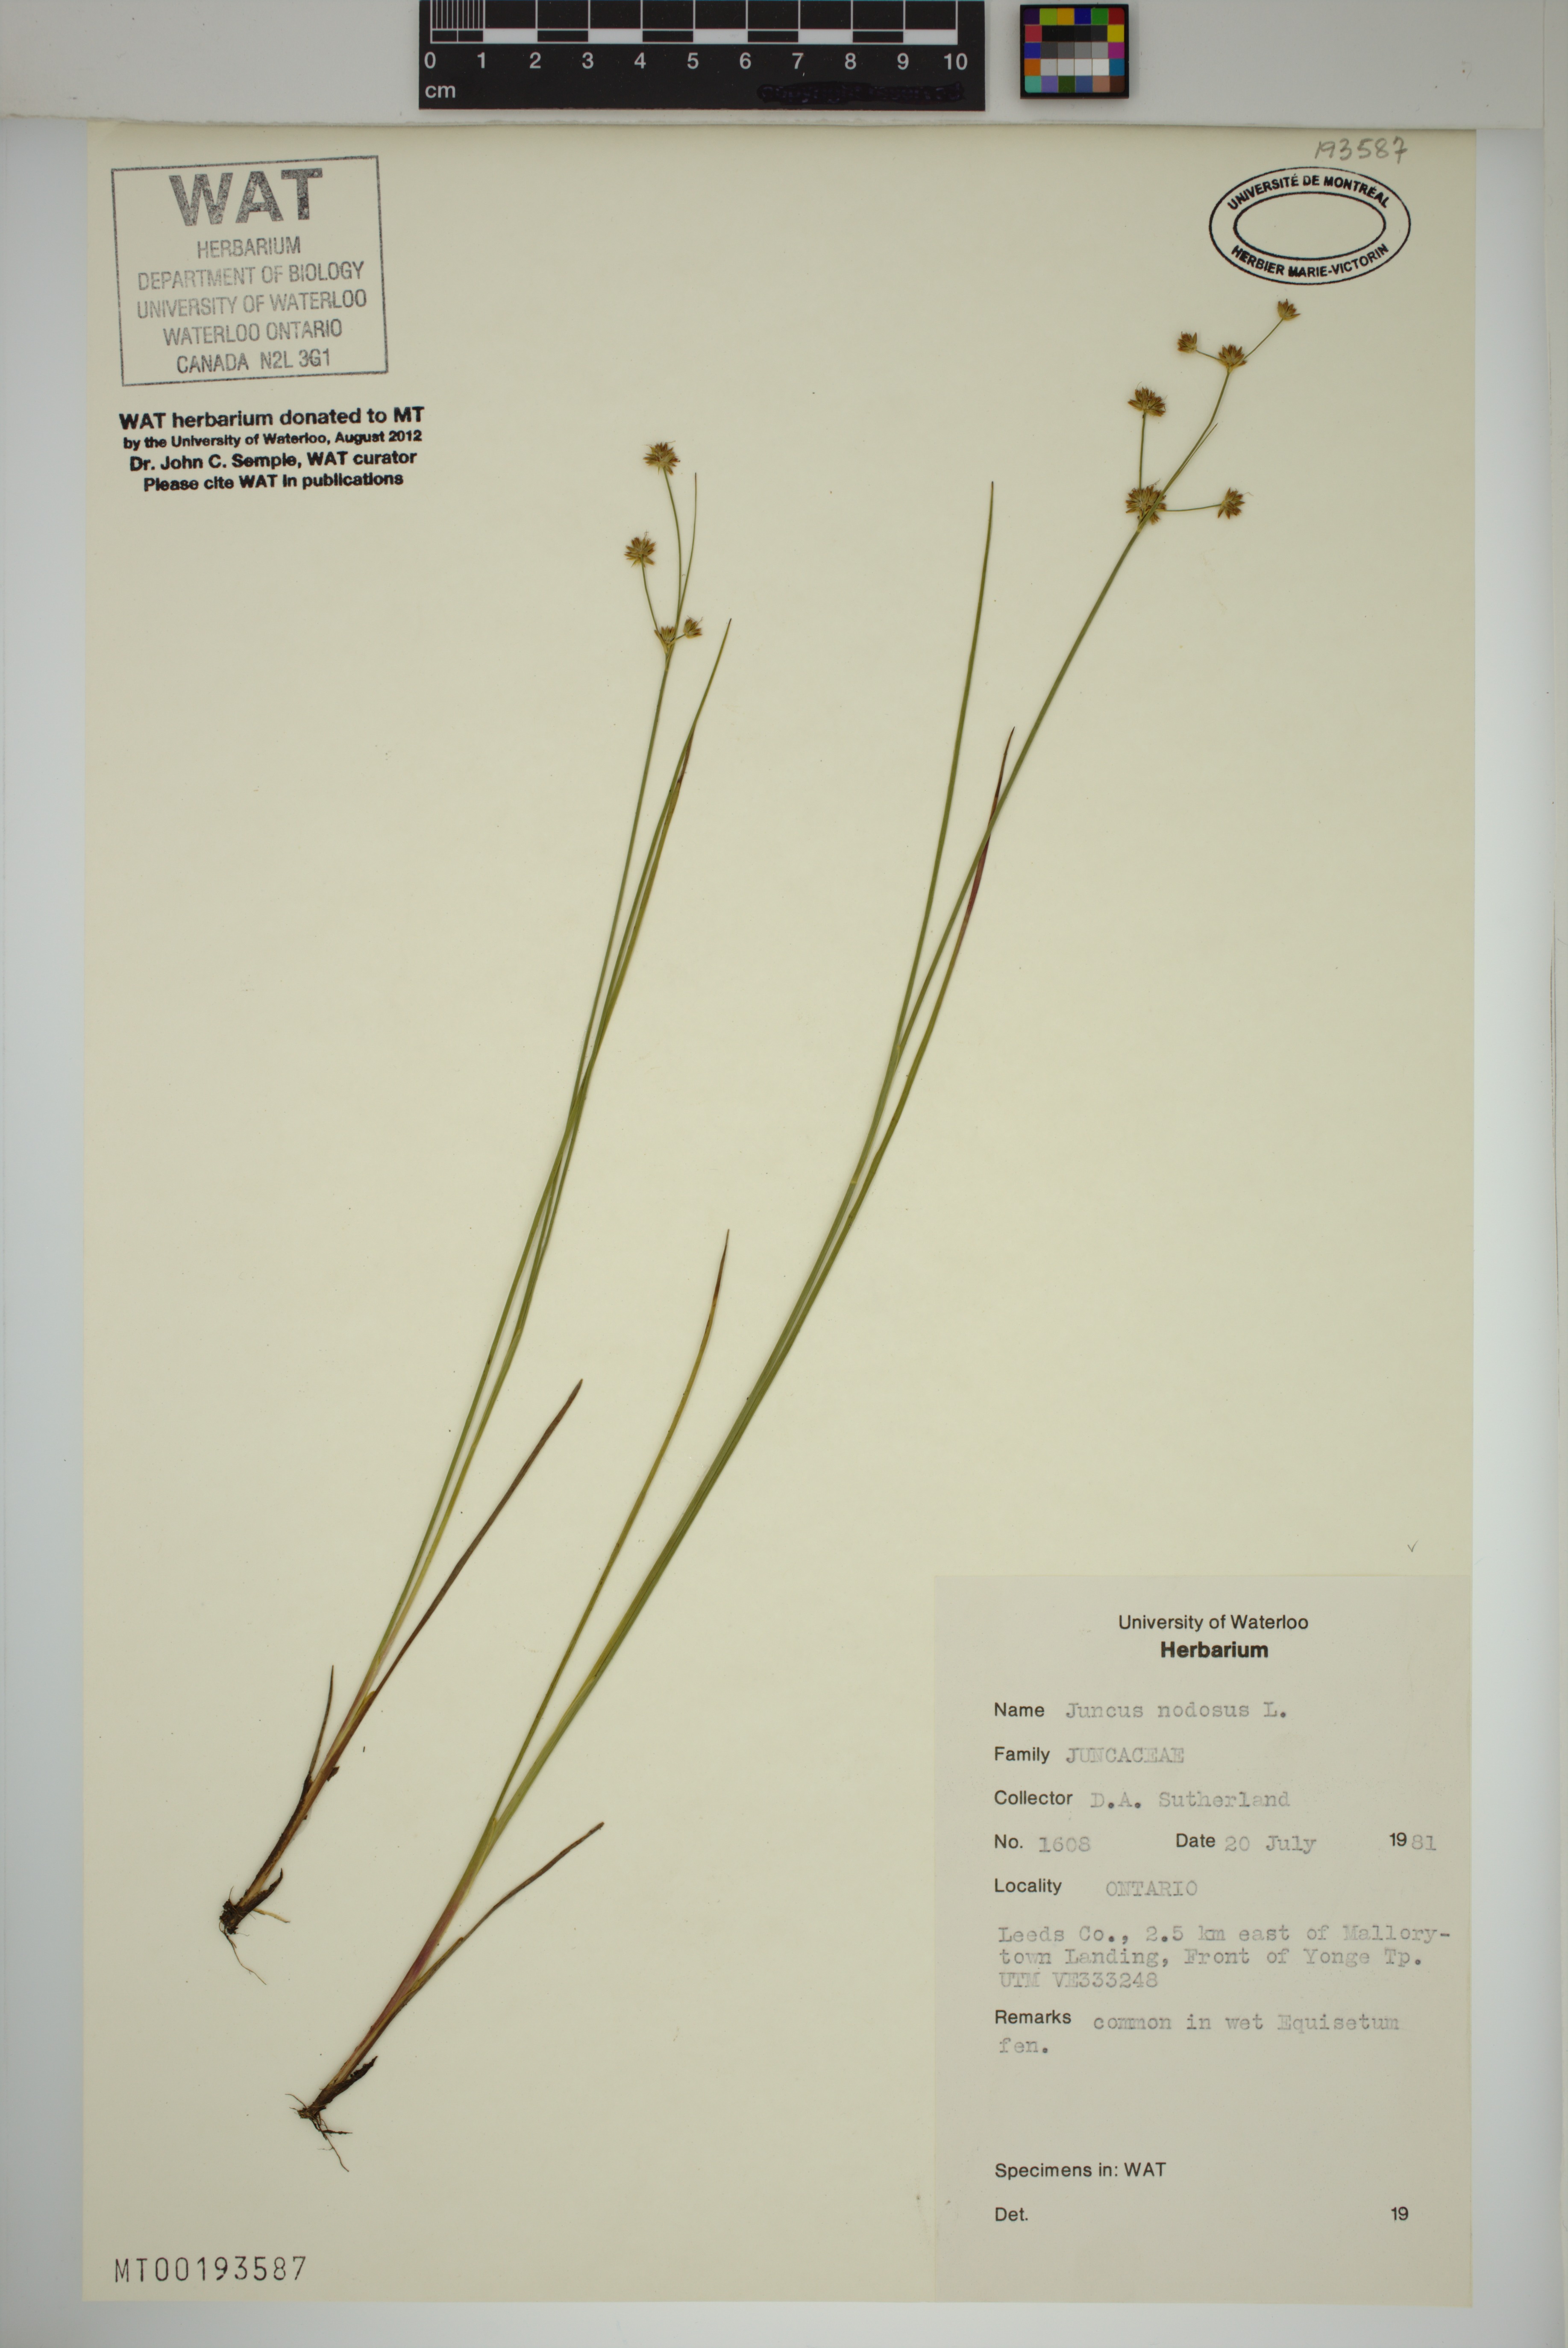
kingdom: Plantae
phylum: Tracheophyta
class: Liliopsida
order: Poales
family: Juncaceae
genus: Juncus
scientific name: Juncus nodosus
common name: Knotted rush
